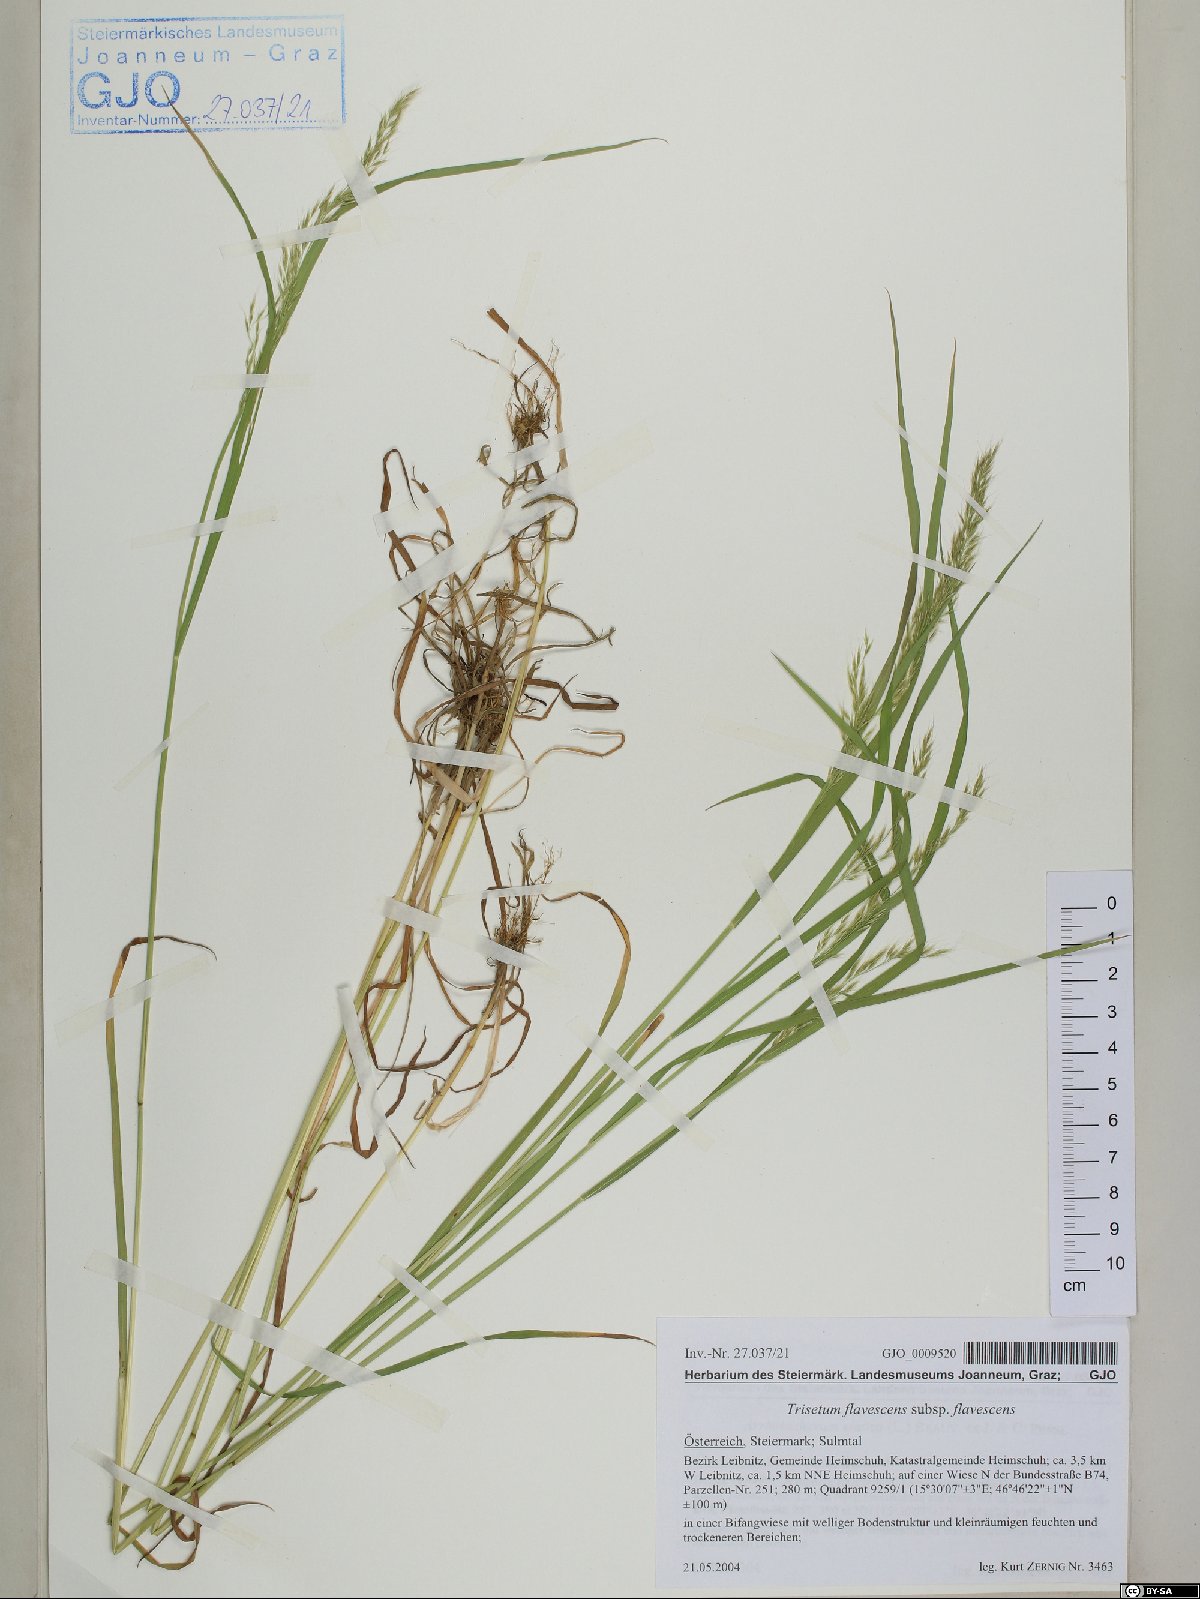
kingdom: Plantae
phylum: Tracheophyta
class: Liliopsida
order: Poales
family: Poaceae
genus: Trisetum
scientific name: Trisetum flavescens
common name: Yellow oat-grass
